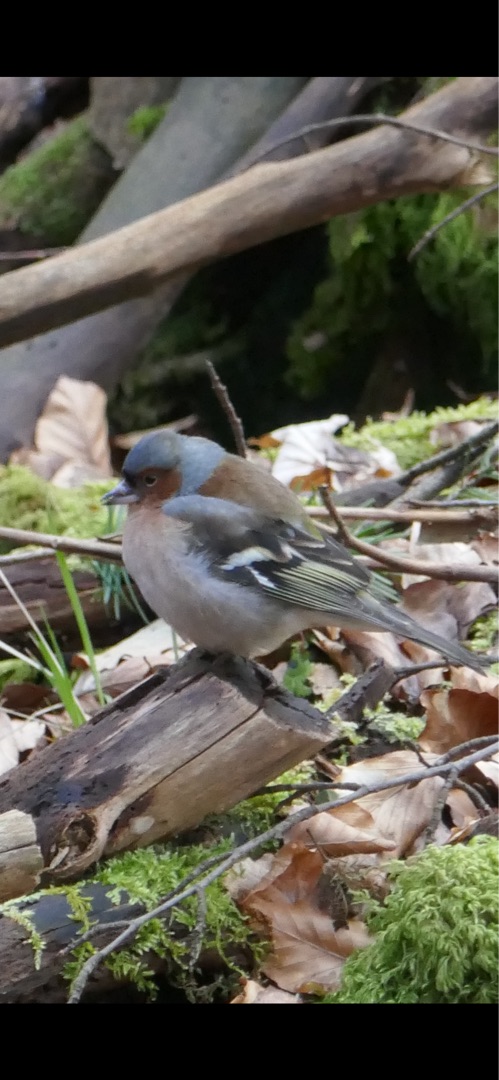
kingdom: Animalia
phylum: Chordata
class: Aves
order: Passeriformes
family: Fringillidae
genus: Fringilla
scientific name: Fringilla coelebs
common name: Bogfinke
